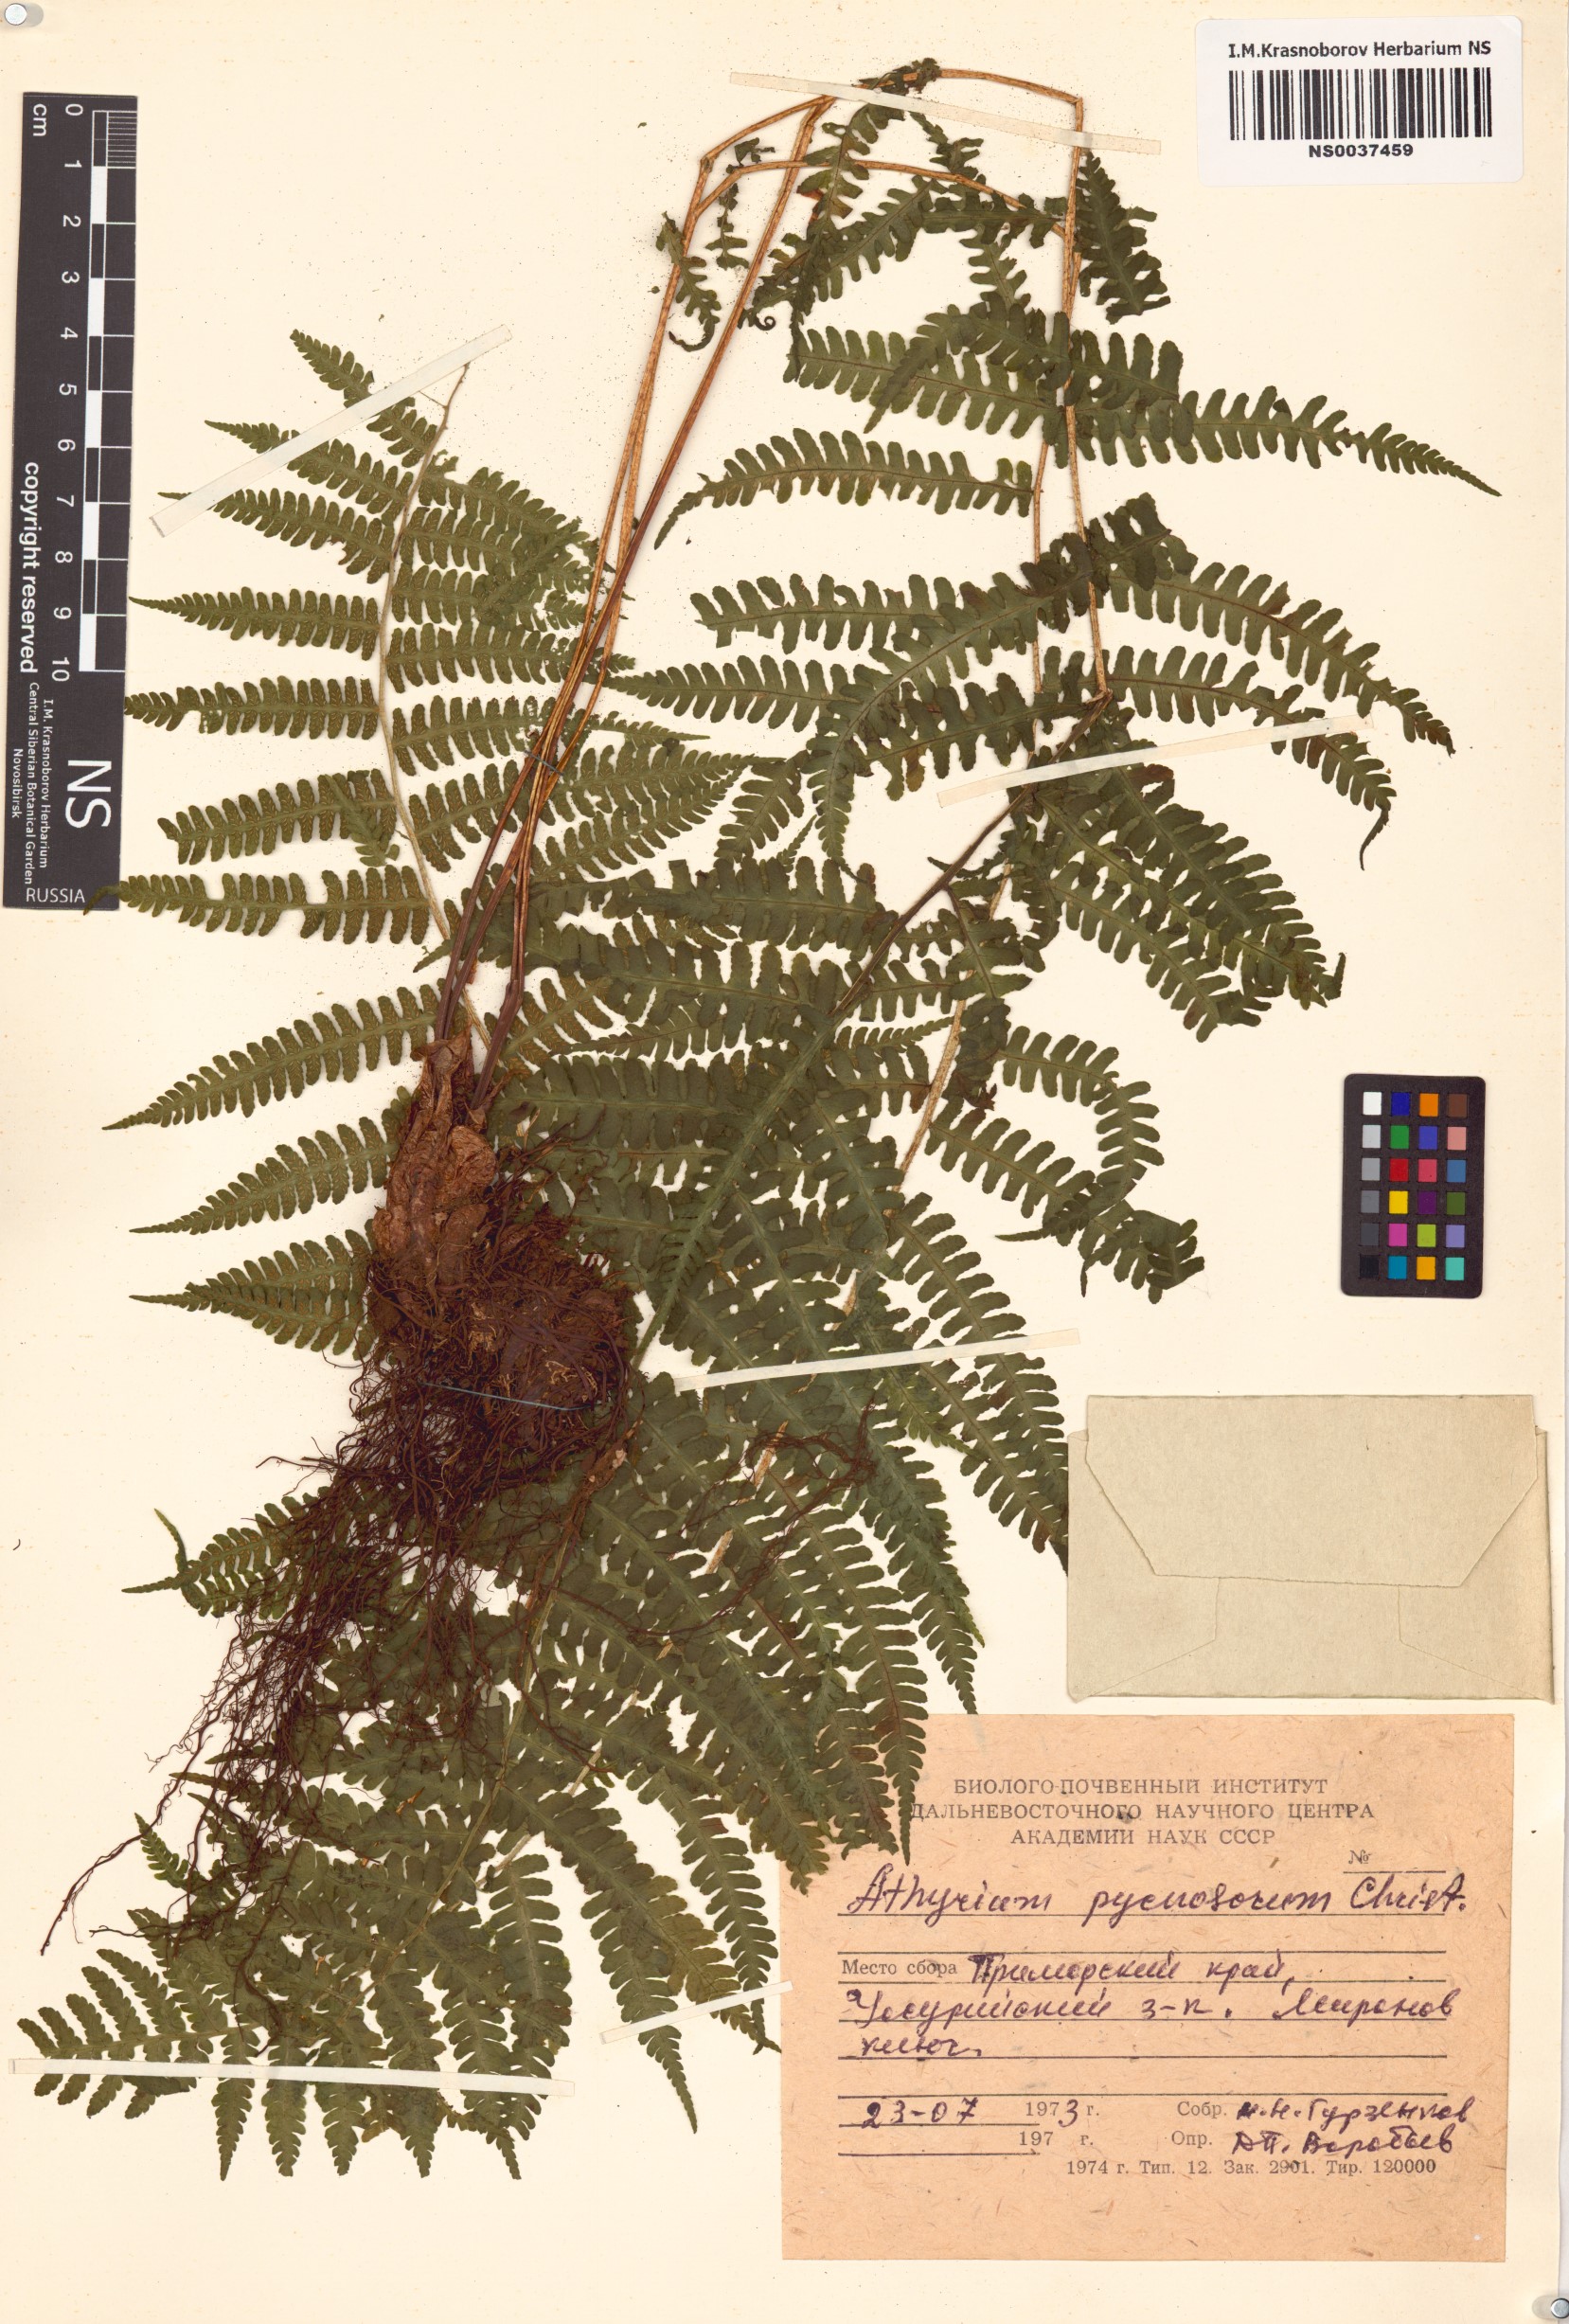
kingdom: Plantae
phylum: Tracheophyta
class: Polypodiopsida
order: Polypodiales
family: Athyriaceae
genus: Deparia
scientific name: Deparia pycnosora
